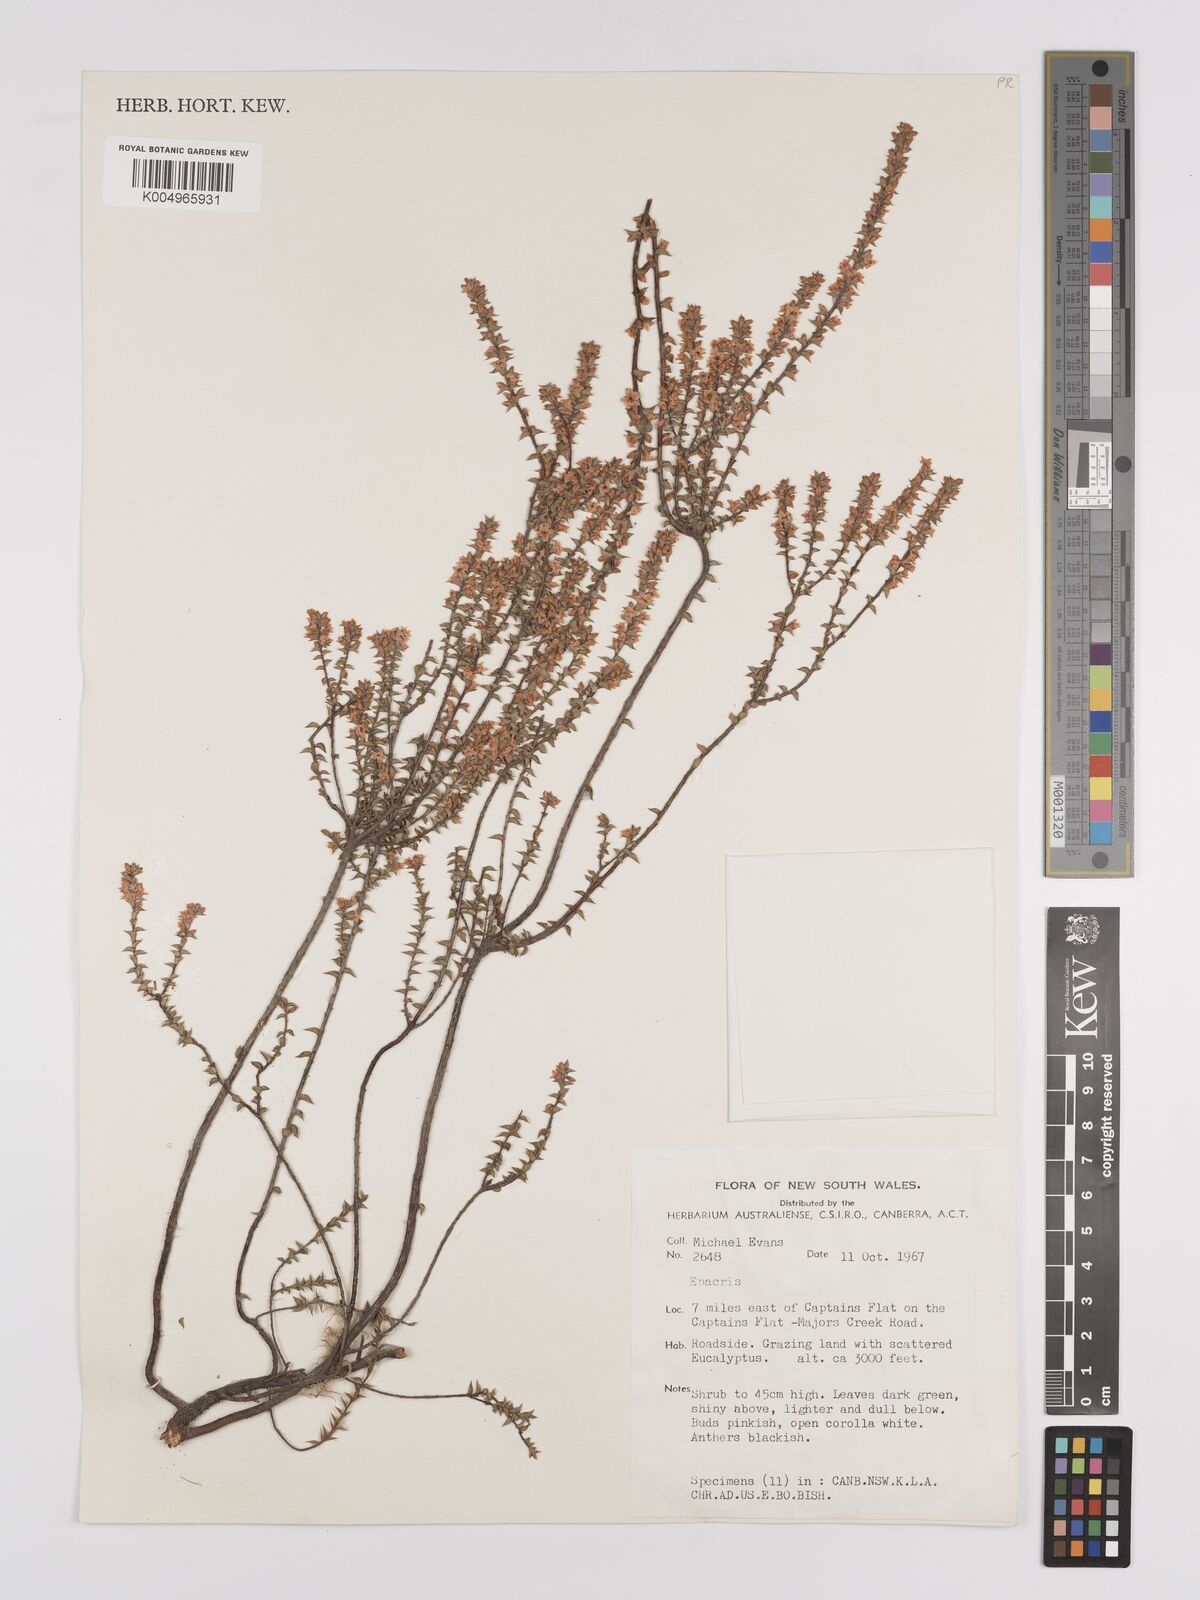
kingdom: Plantae
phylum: Tracheophyta
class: Magnoliopsida
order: Ericales
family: Ericaceae
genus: Epacris
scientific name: Epacris
